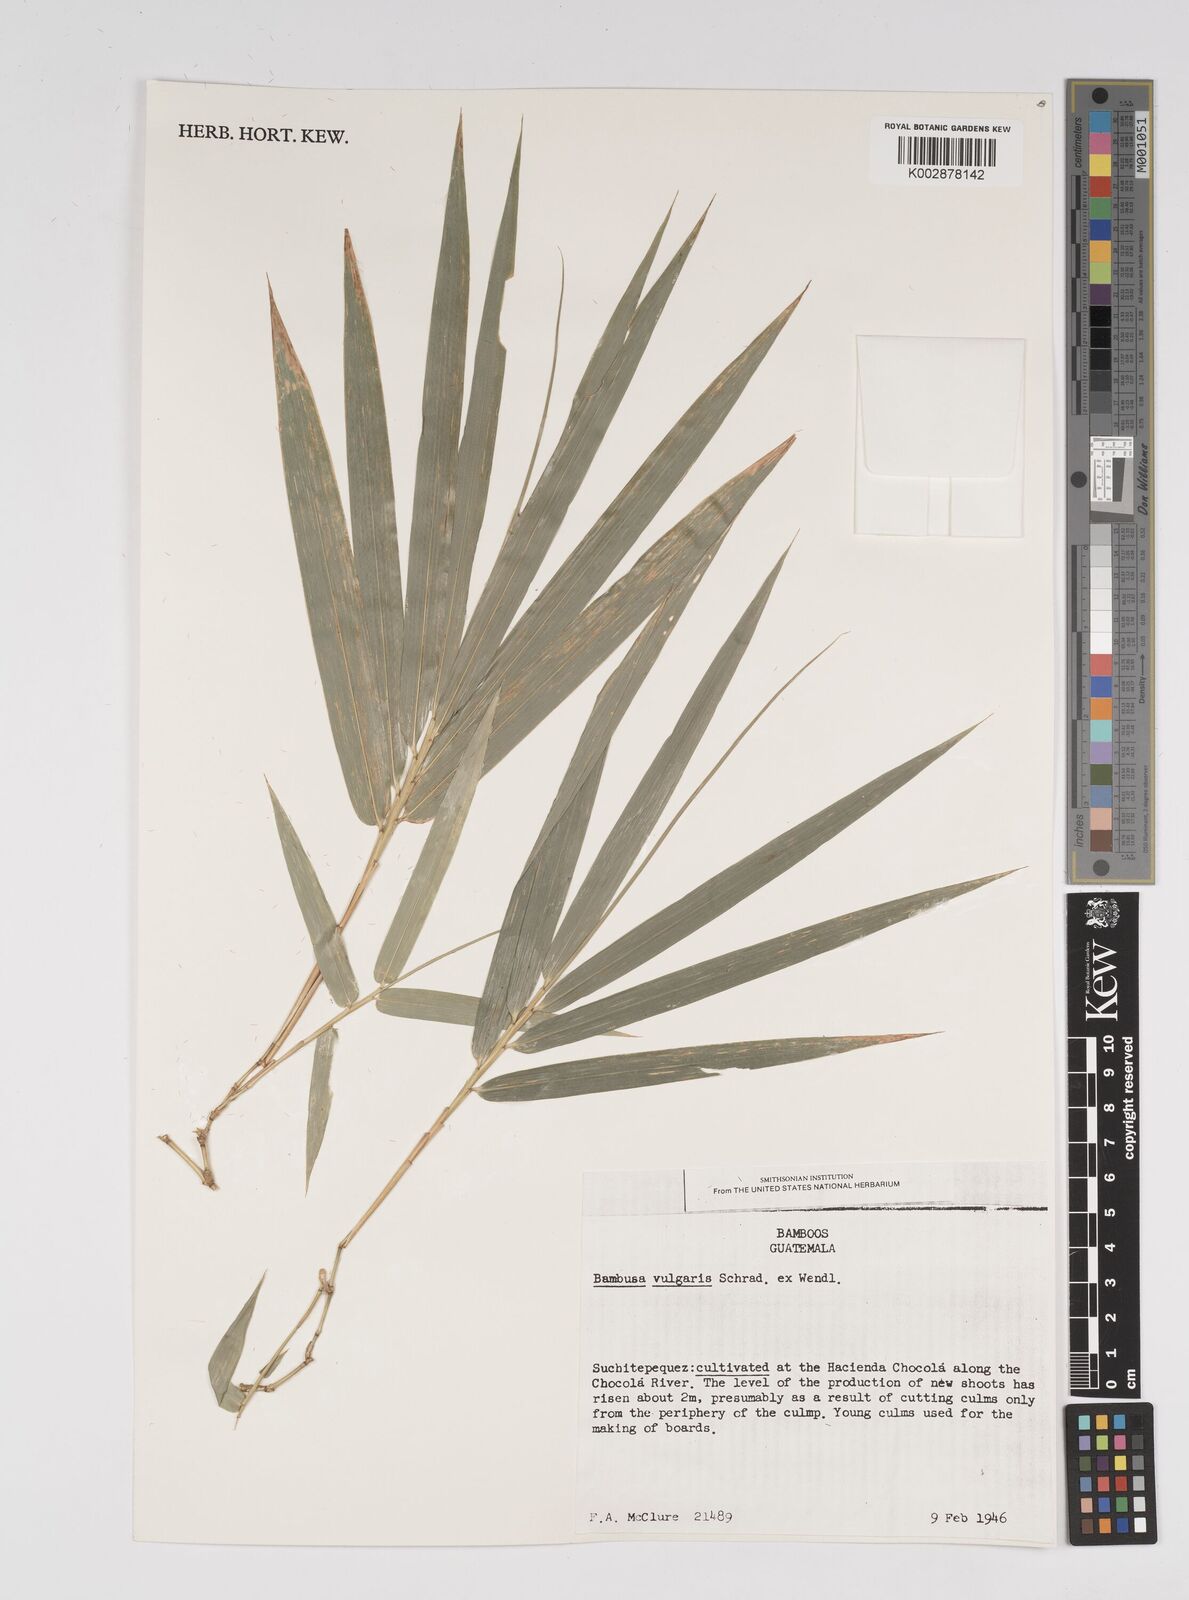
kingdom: Plantae
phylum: Tracheophyta
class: Liliopsida
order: Poales
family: Poaceae
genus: Bambusa
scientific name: Bambusa
